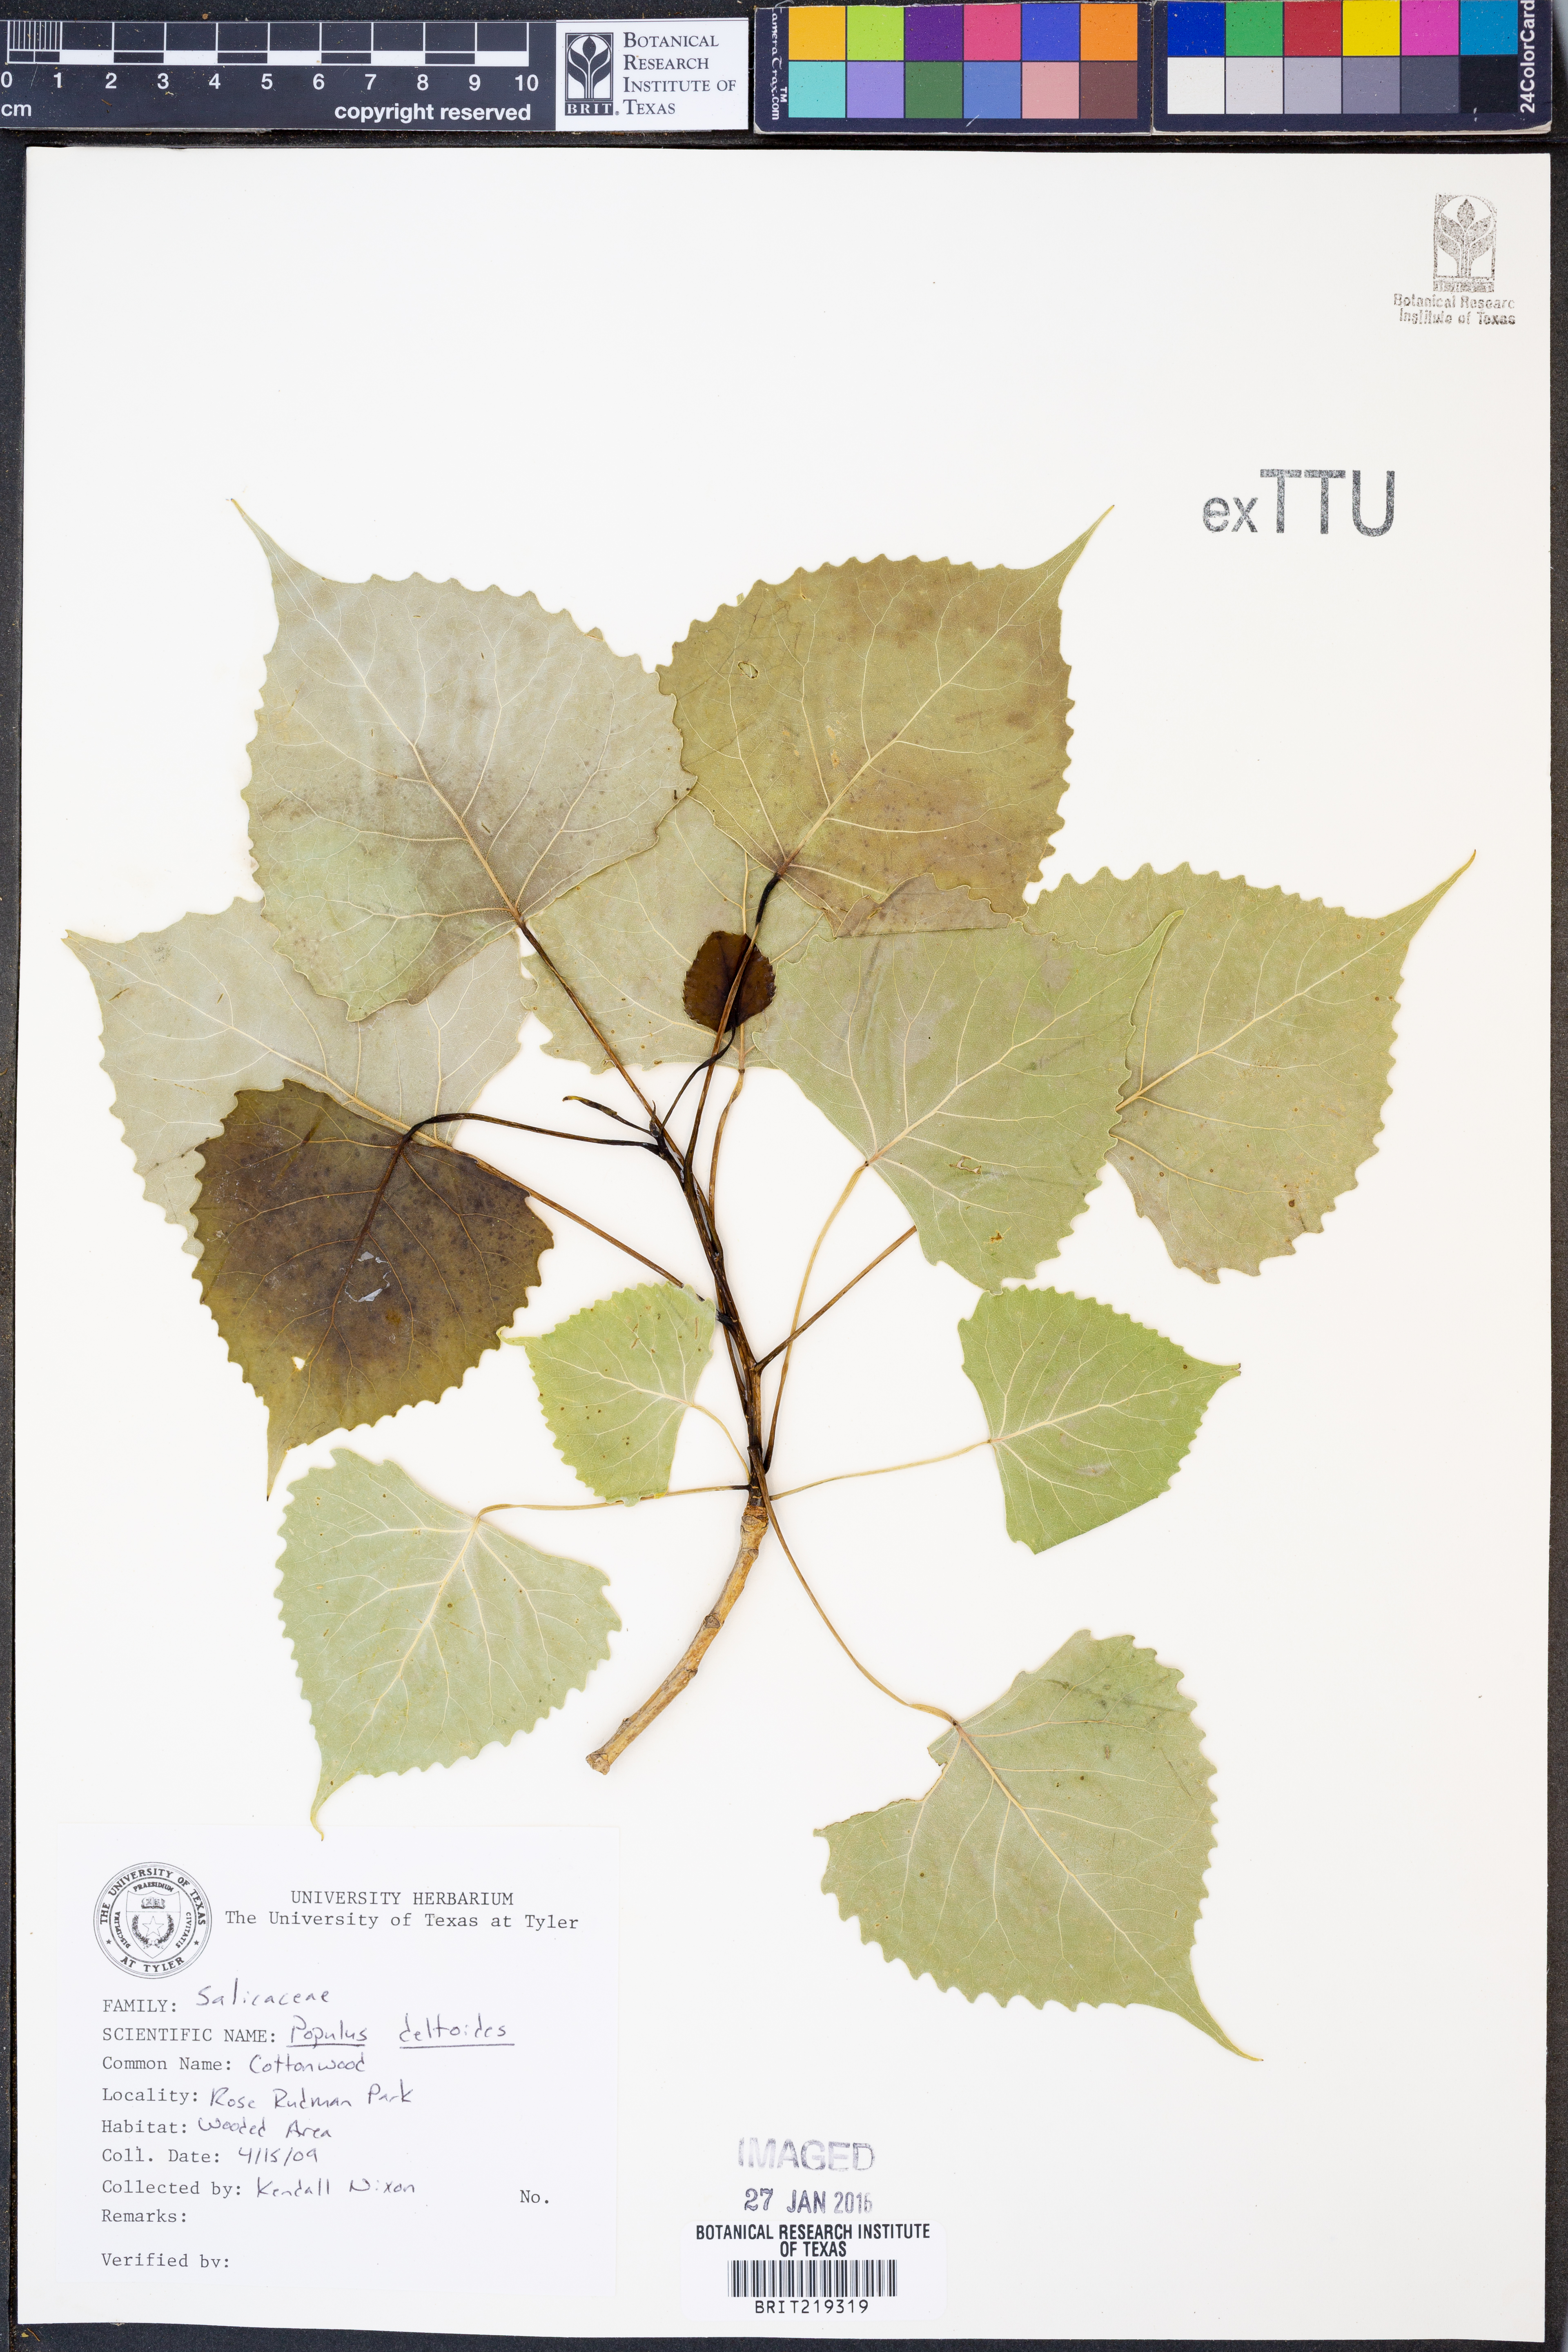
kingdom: Plantae
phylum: Tracheophyta
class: Magnoliopsida
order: Malpighiales
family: Salicaceae
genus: Populus
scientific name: Populus deltoides
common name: Eastern cottonwood
